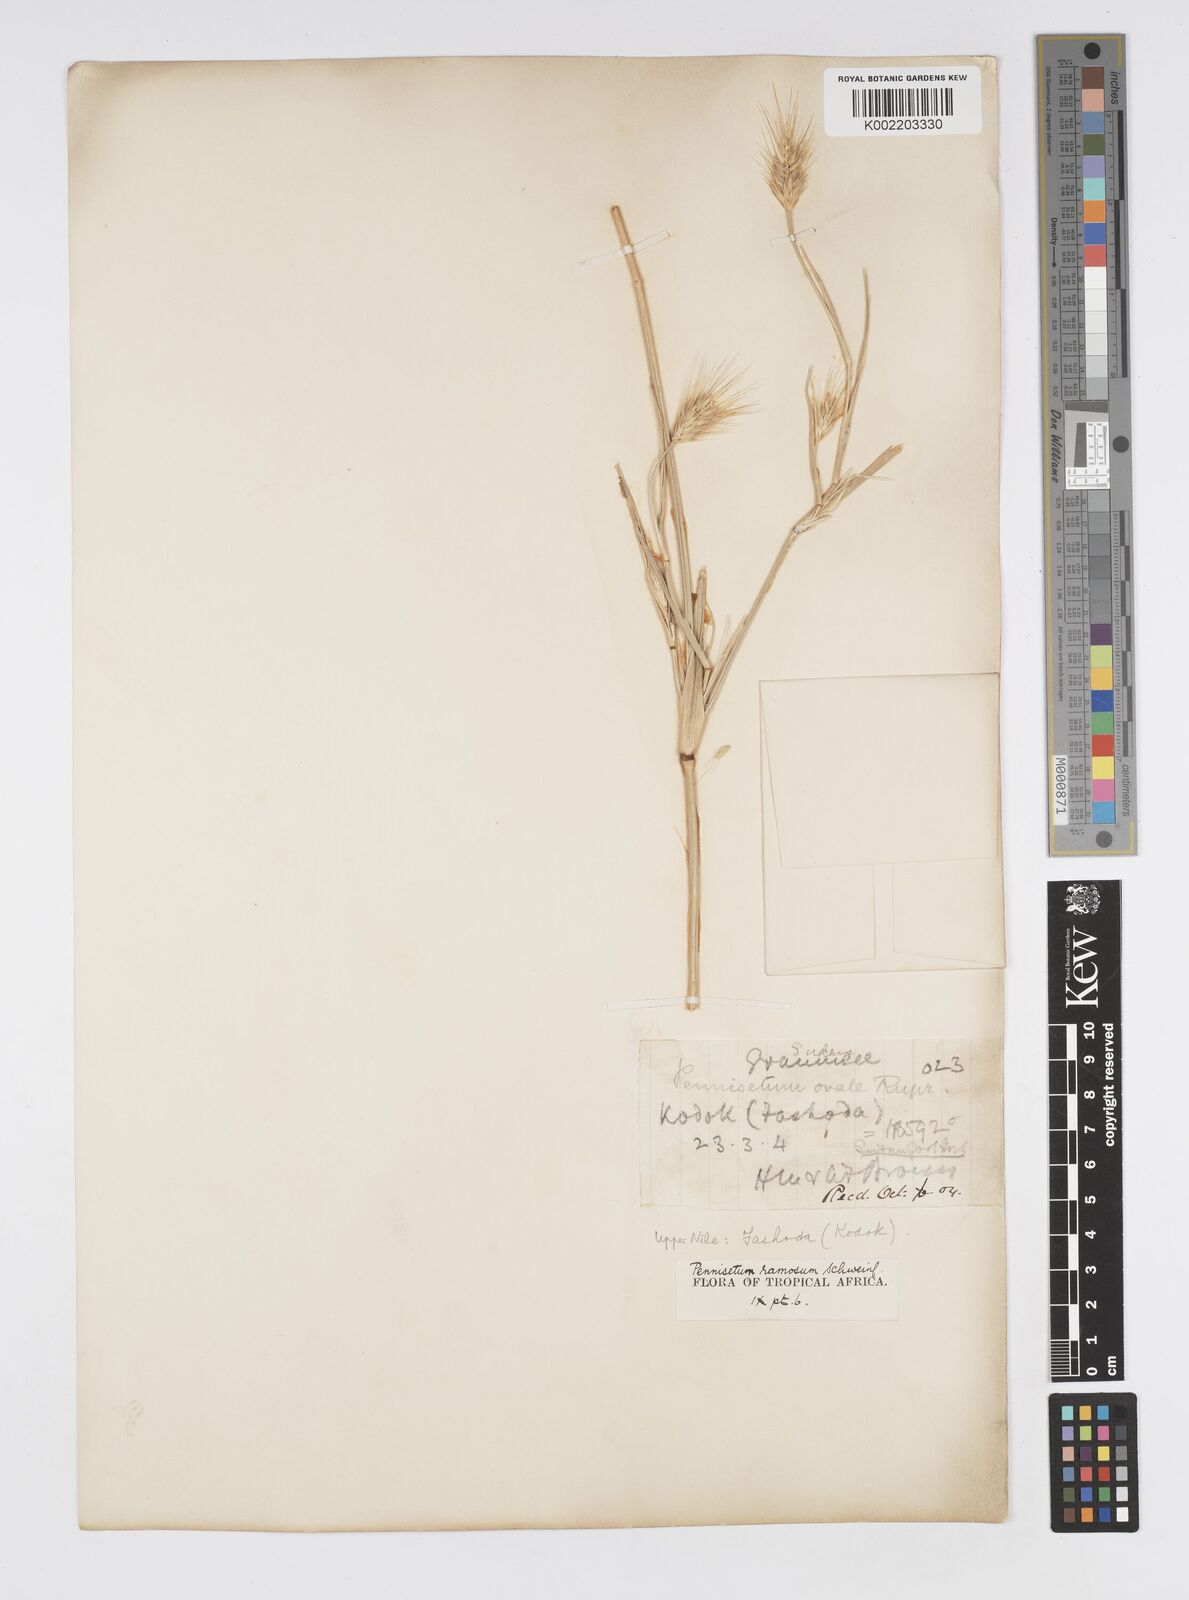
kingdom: Plantae
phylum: Tracheophyta
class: Liliopsida
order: Poales
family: Poaceae
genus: Cenchrus
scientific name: Cenchrus ramosus
